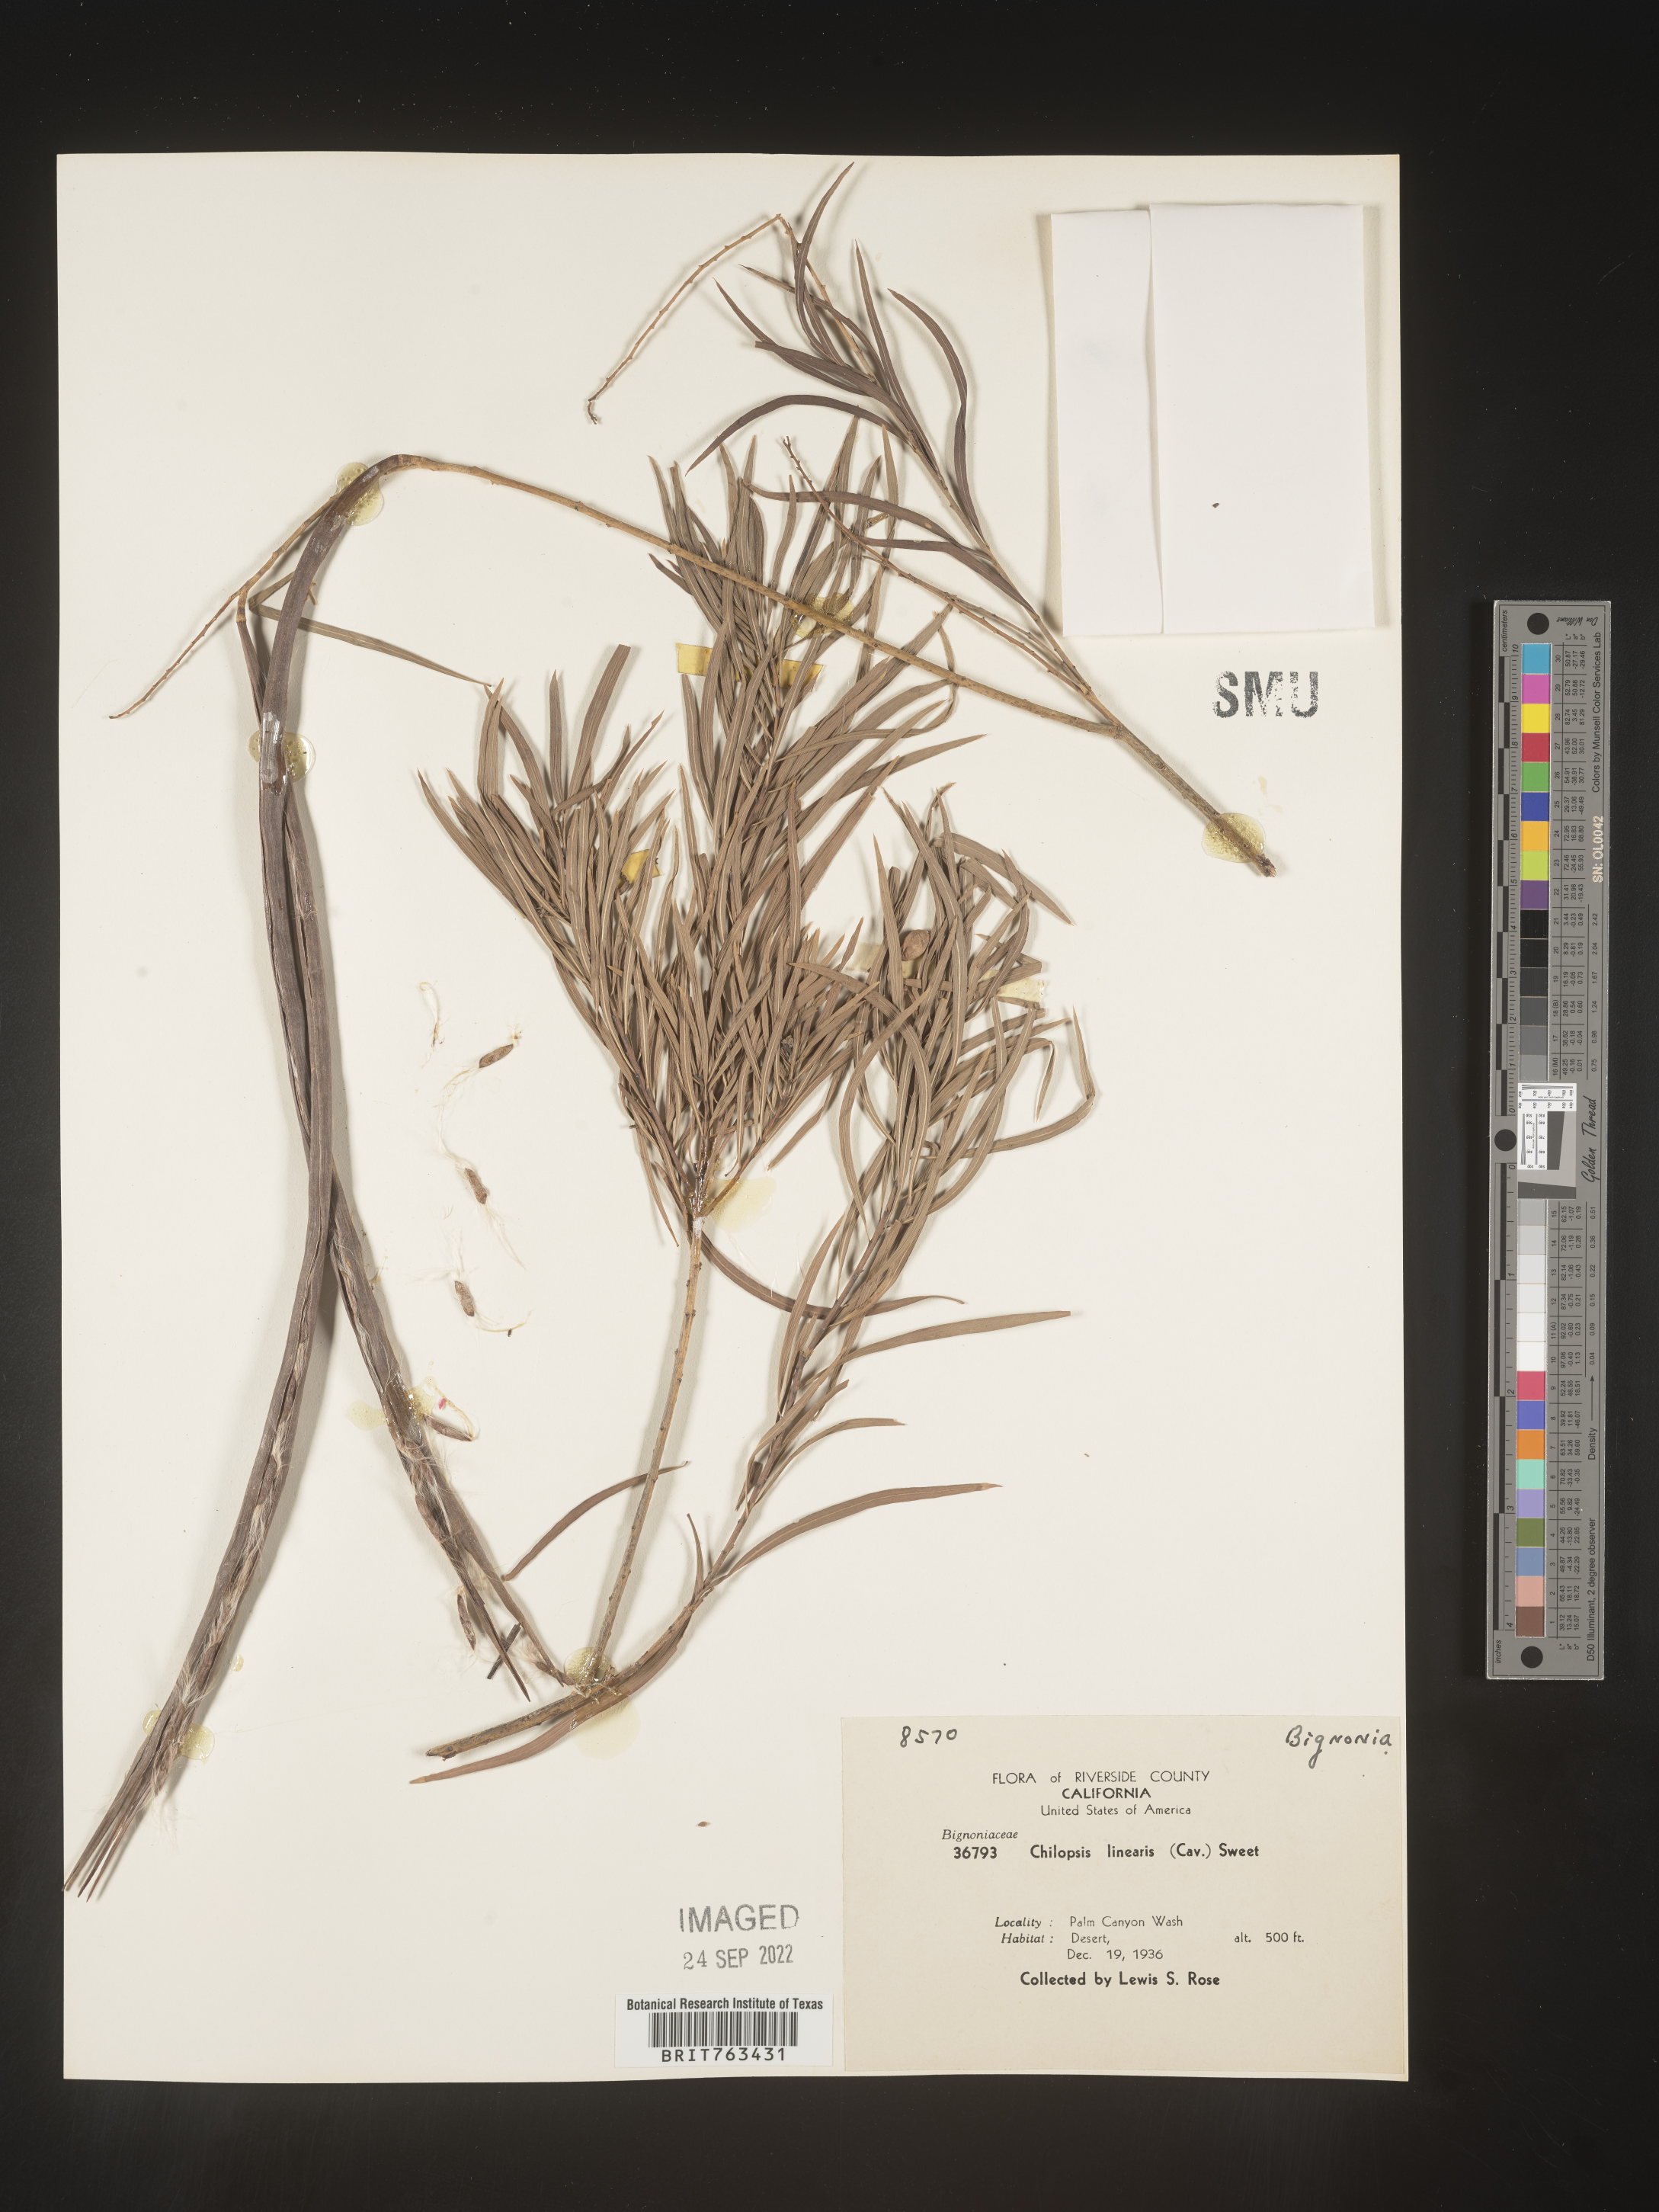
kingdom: Plantae
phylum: Tracheophyta
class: Magnoliopsida
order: Lamiales
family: Bignoniaceae
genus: Chilopsis
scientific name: Chilopsis linearis
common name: Desert-willow
